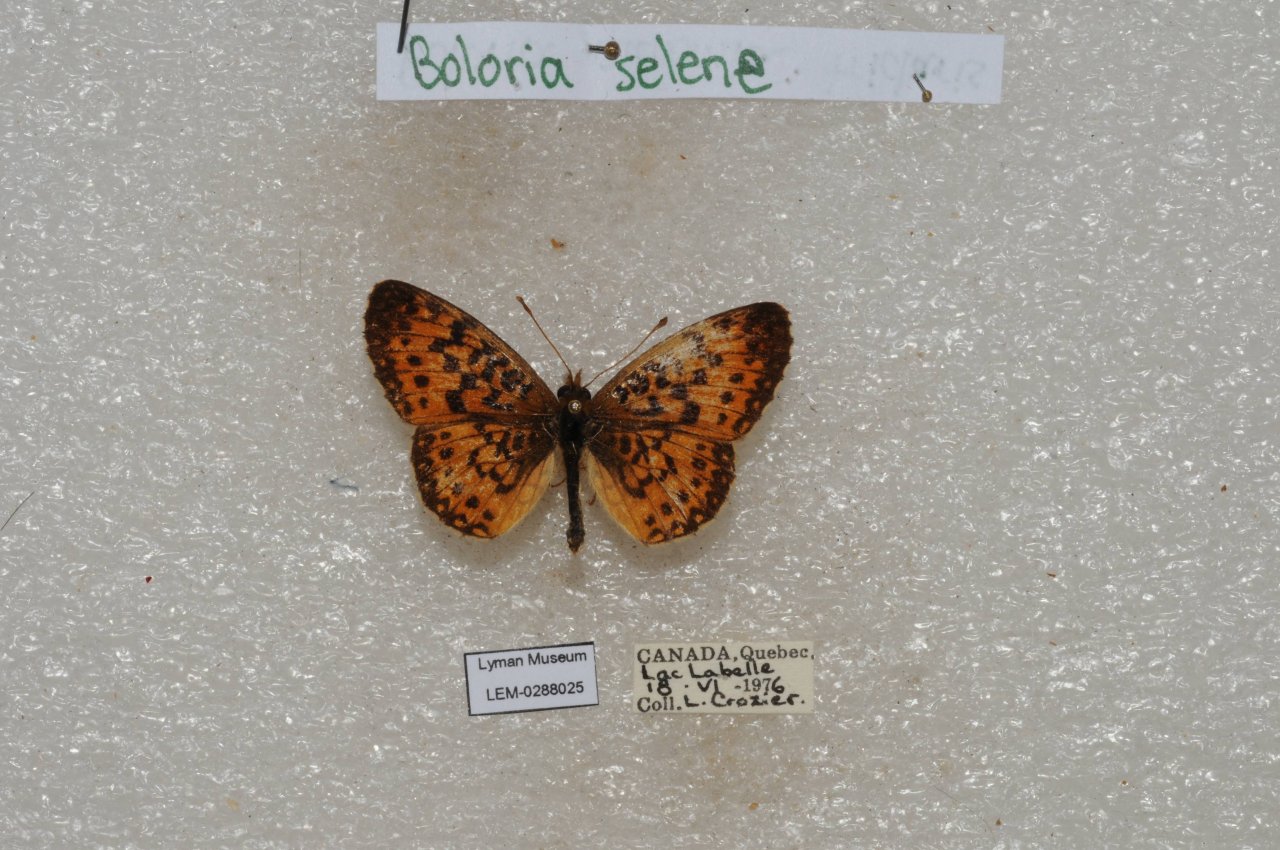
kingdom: Animalia
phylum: Arthropoda
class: Insecta
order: Lepidoptera
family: Nymphalidae
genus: Boloria
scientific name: Boloria selene
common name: Silver-bordered Fritillary
